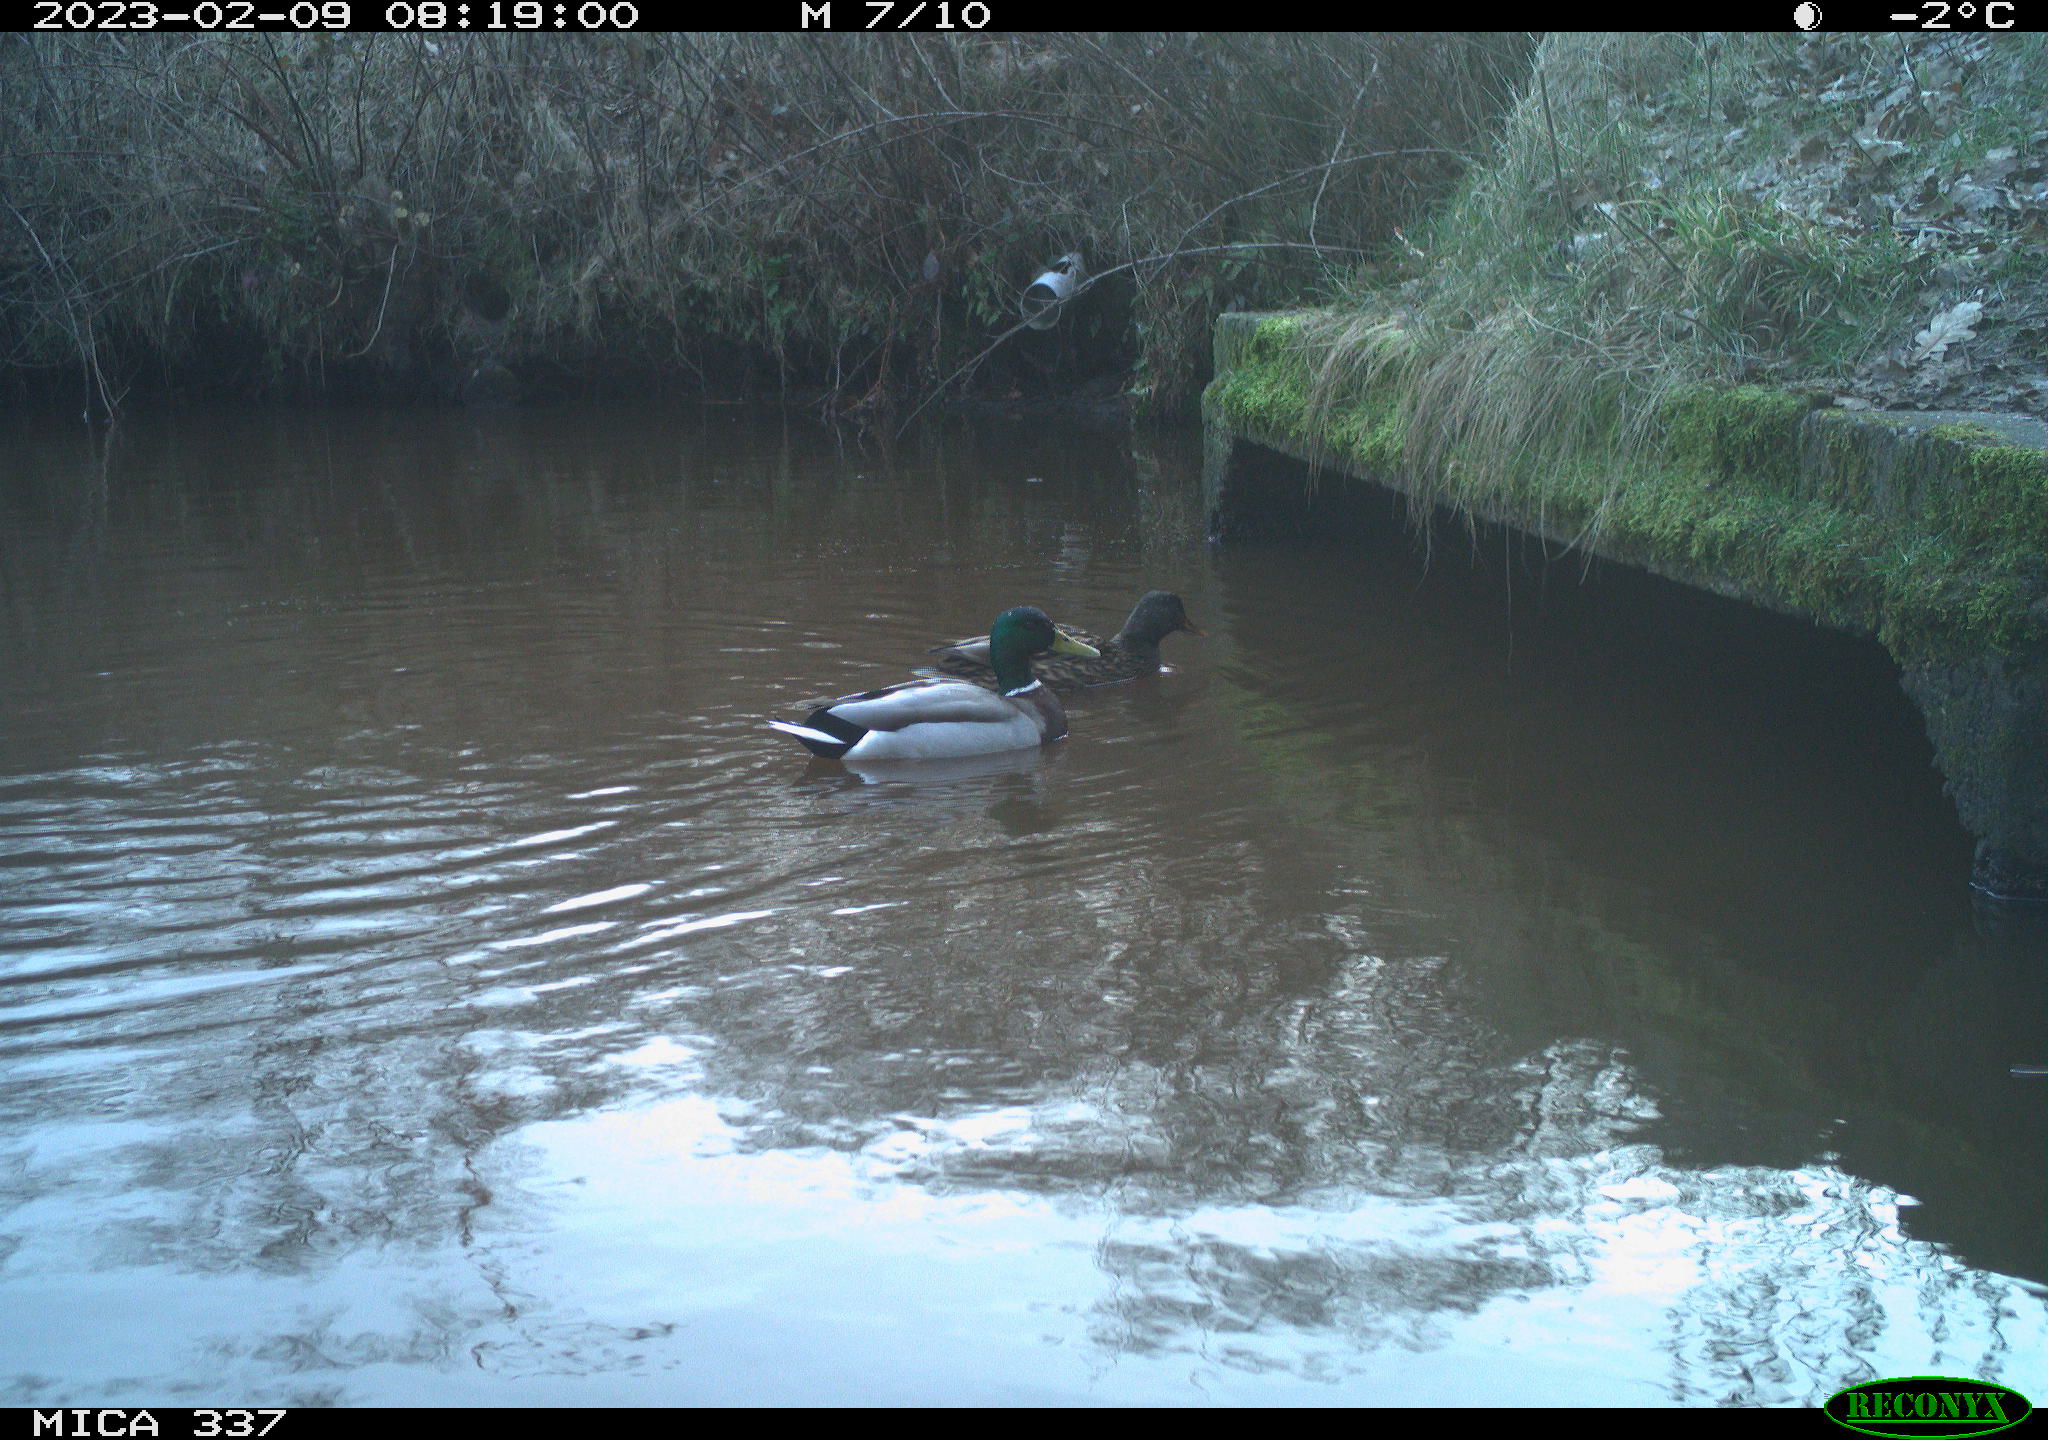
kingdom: Animalia
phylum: Chordata
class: Aves
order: Anseriformes
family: Anatidae
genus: Anas
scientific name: Anas
